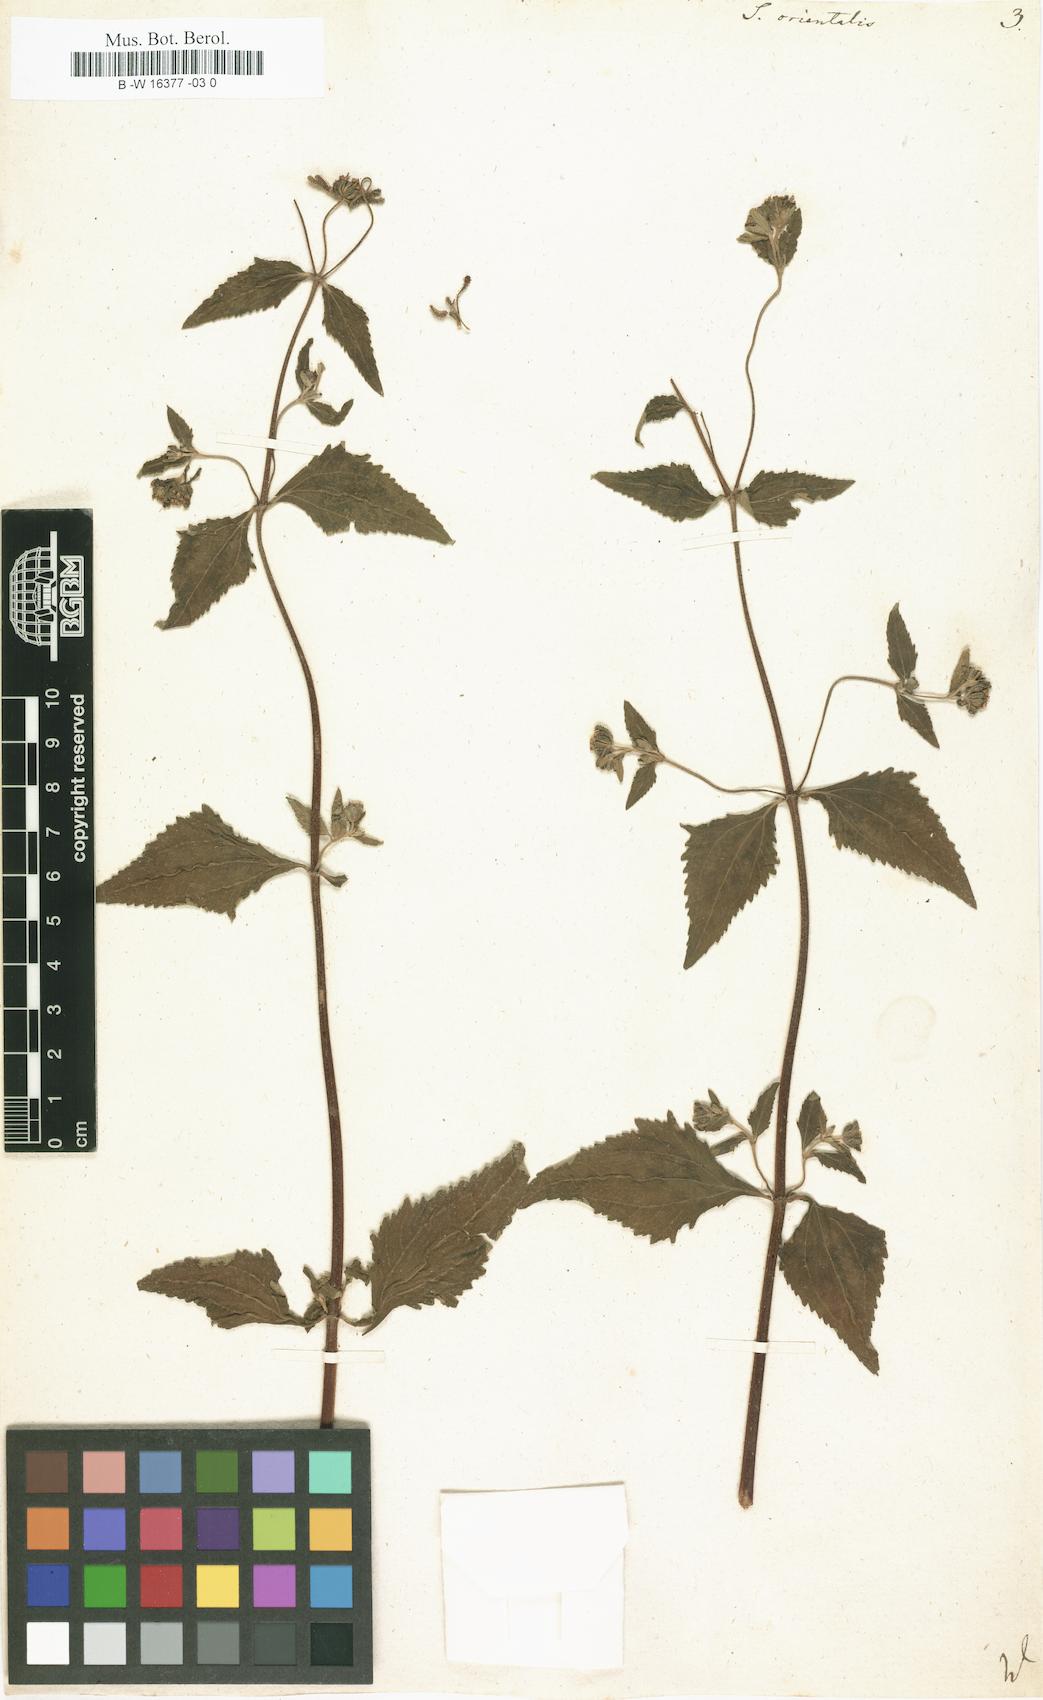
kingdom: Plantae
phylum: Tracheophyta
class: Magnoliopsida
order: Asterales
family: Asteraceae
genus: Sigesbeckia
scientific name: Sigesbeckia orientalis
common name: Eastern st paul's-wort
